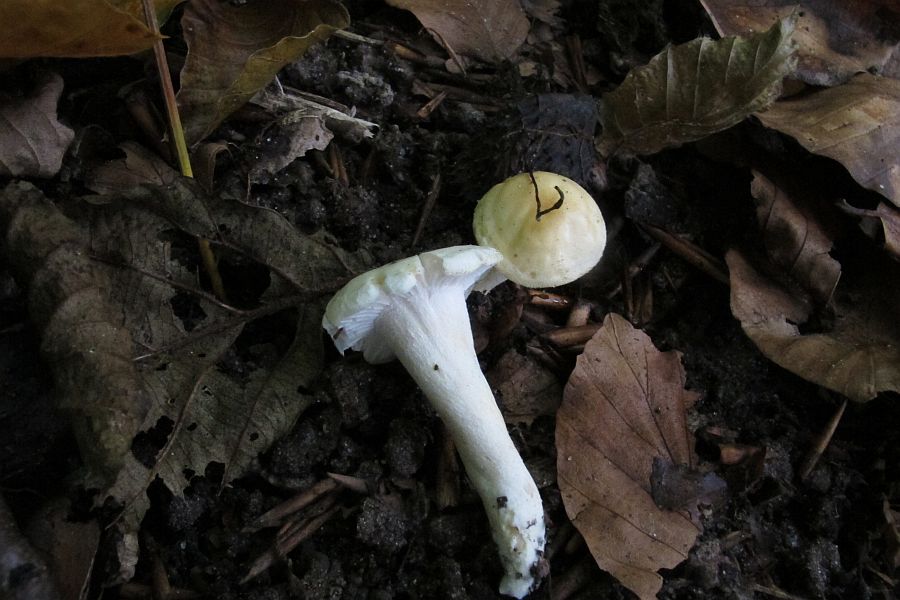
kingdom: Fungi
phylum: Basidiomycota
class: Agaricomycetes
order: Agaricales
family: Hygrophoraceae
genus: Hygrophorus
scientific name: Hygrophorus eburneus
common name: elfenbens-sneglehat
